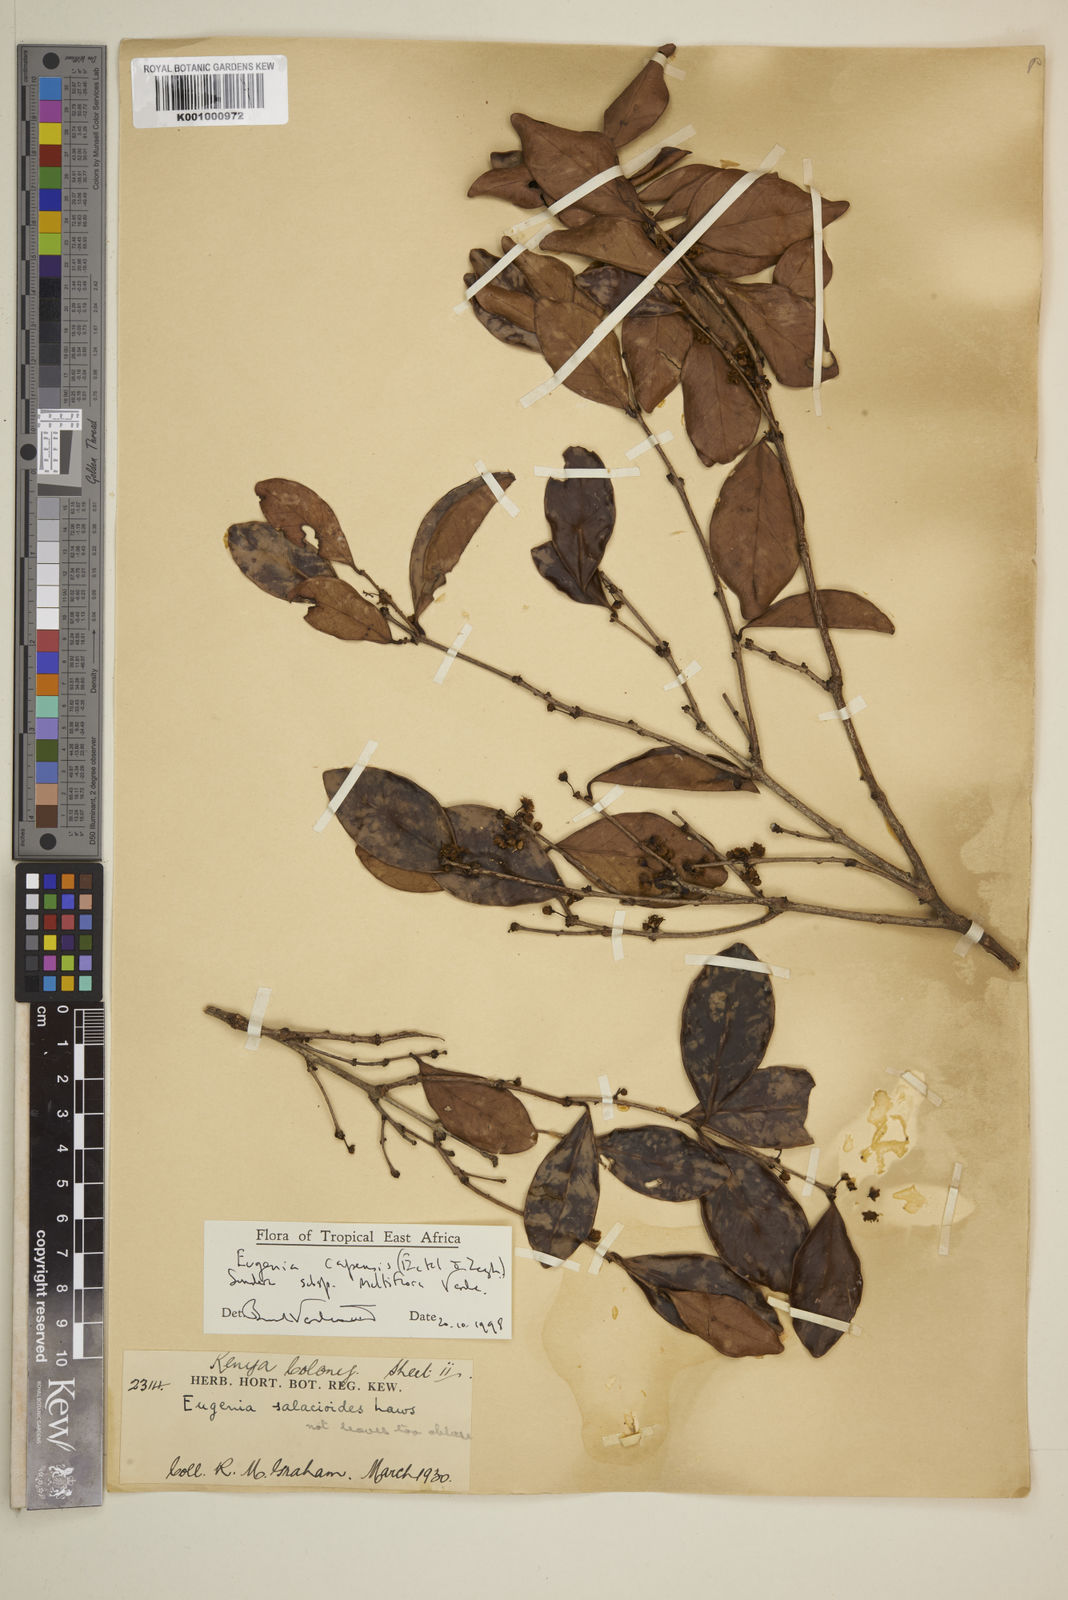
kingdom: Plantae
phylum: Tracheophyta
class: Magnoliopsida
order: Myrtales
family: Myrtaceae
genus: Eugenia
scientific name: Eugenia capensis
